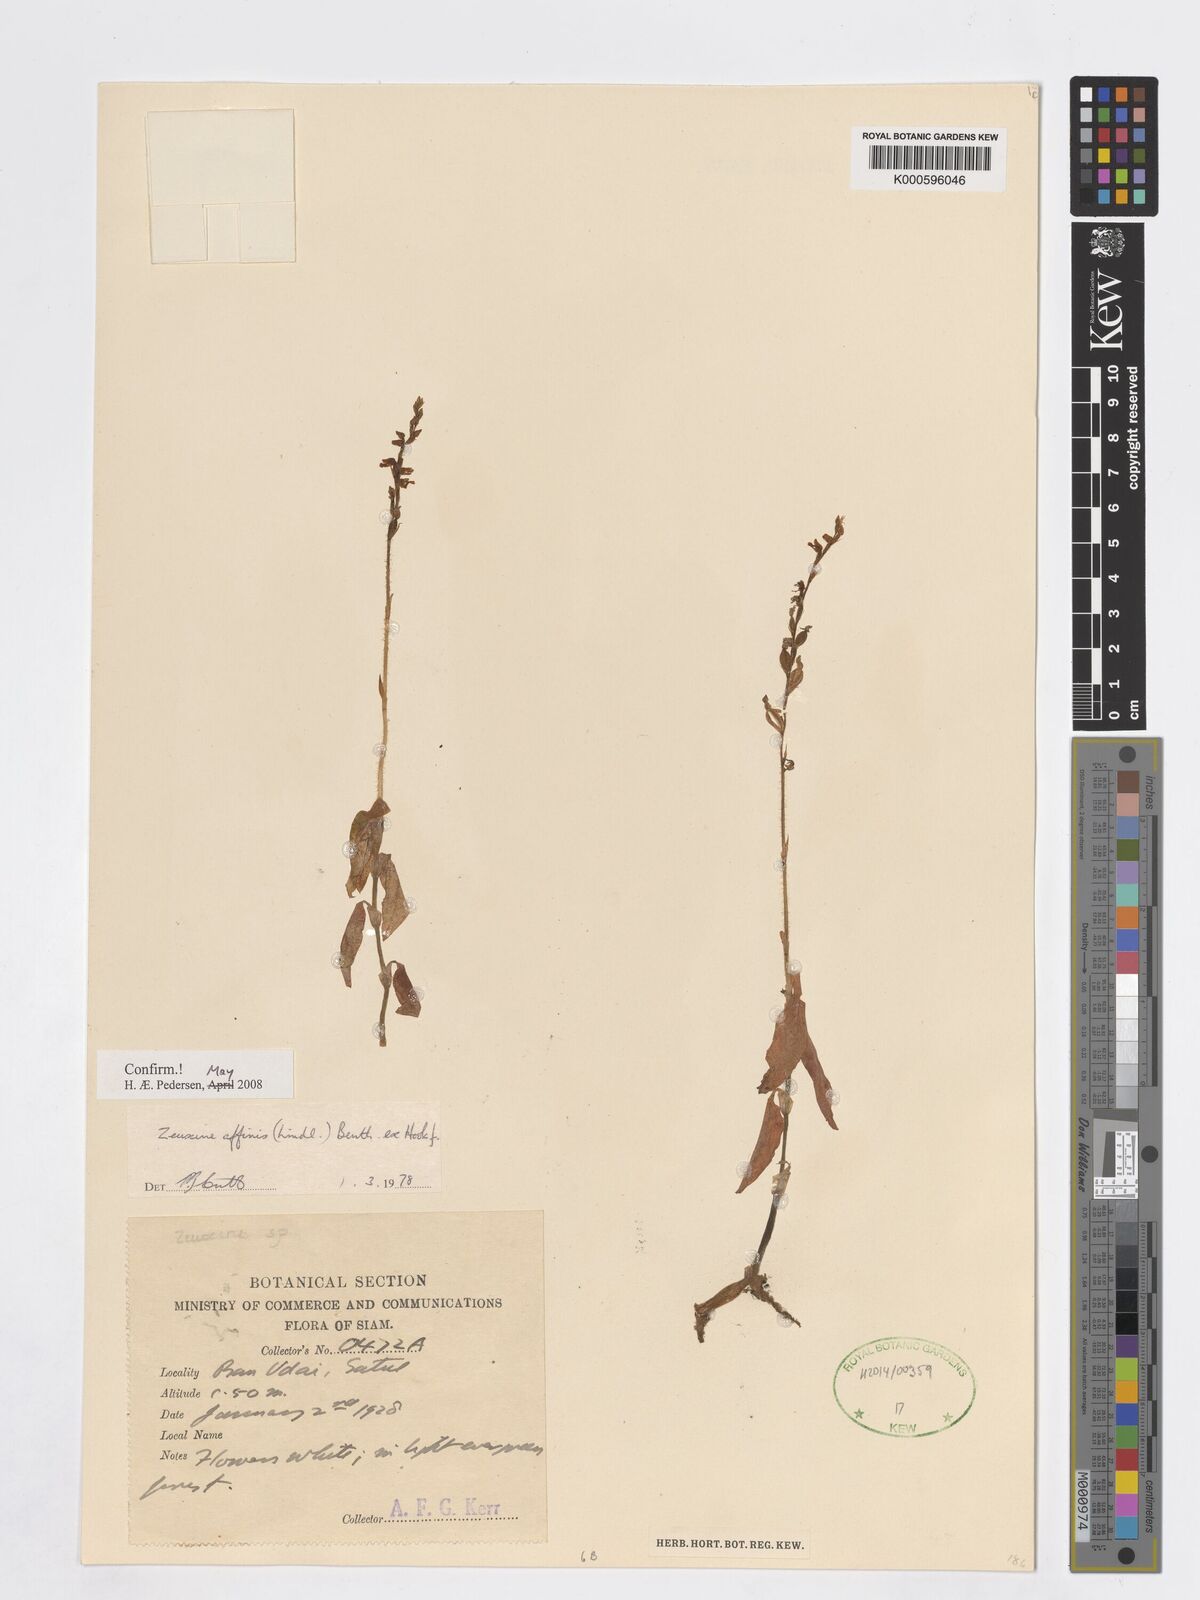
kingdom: Plantae
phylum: Tracheophyta
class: Liliopsida
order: Asparagales
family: Orchidaceae
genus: Zeuxine
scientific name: Zeuxine affinis
